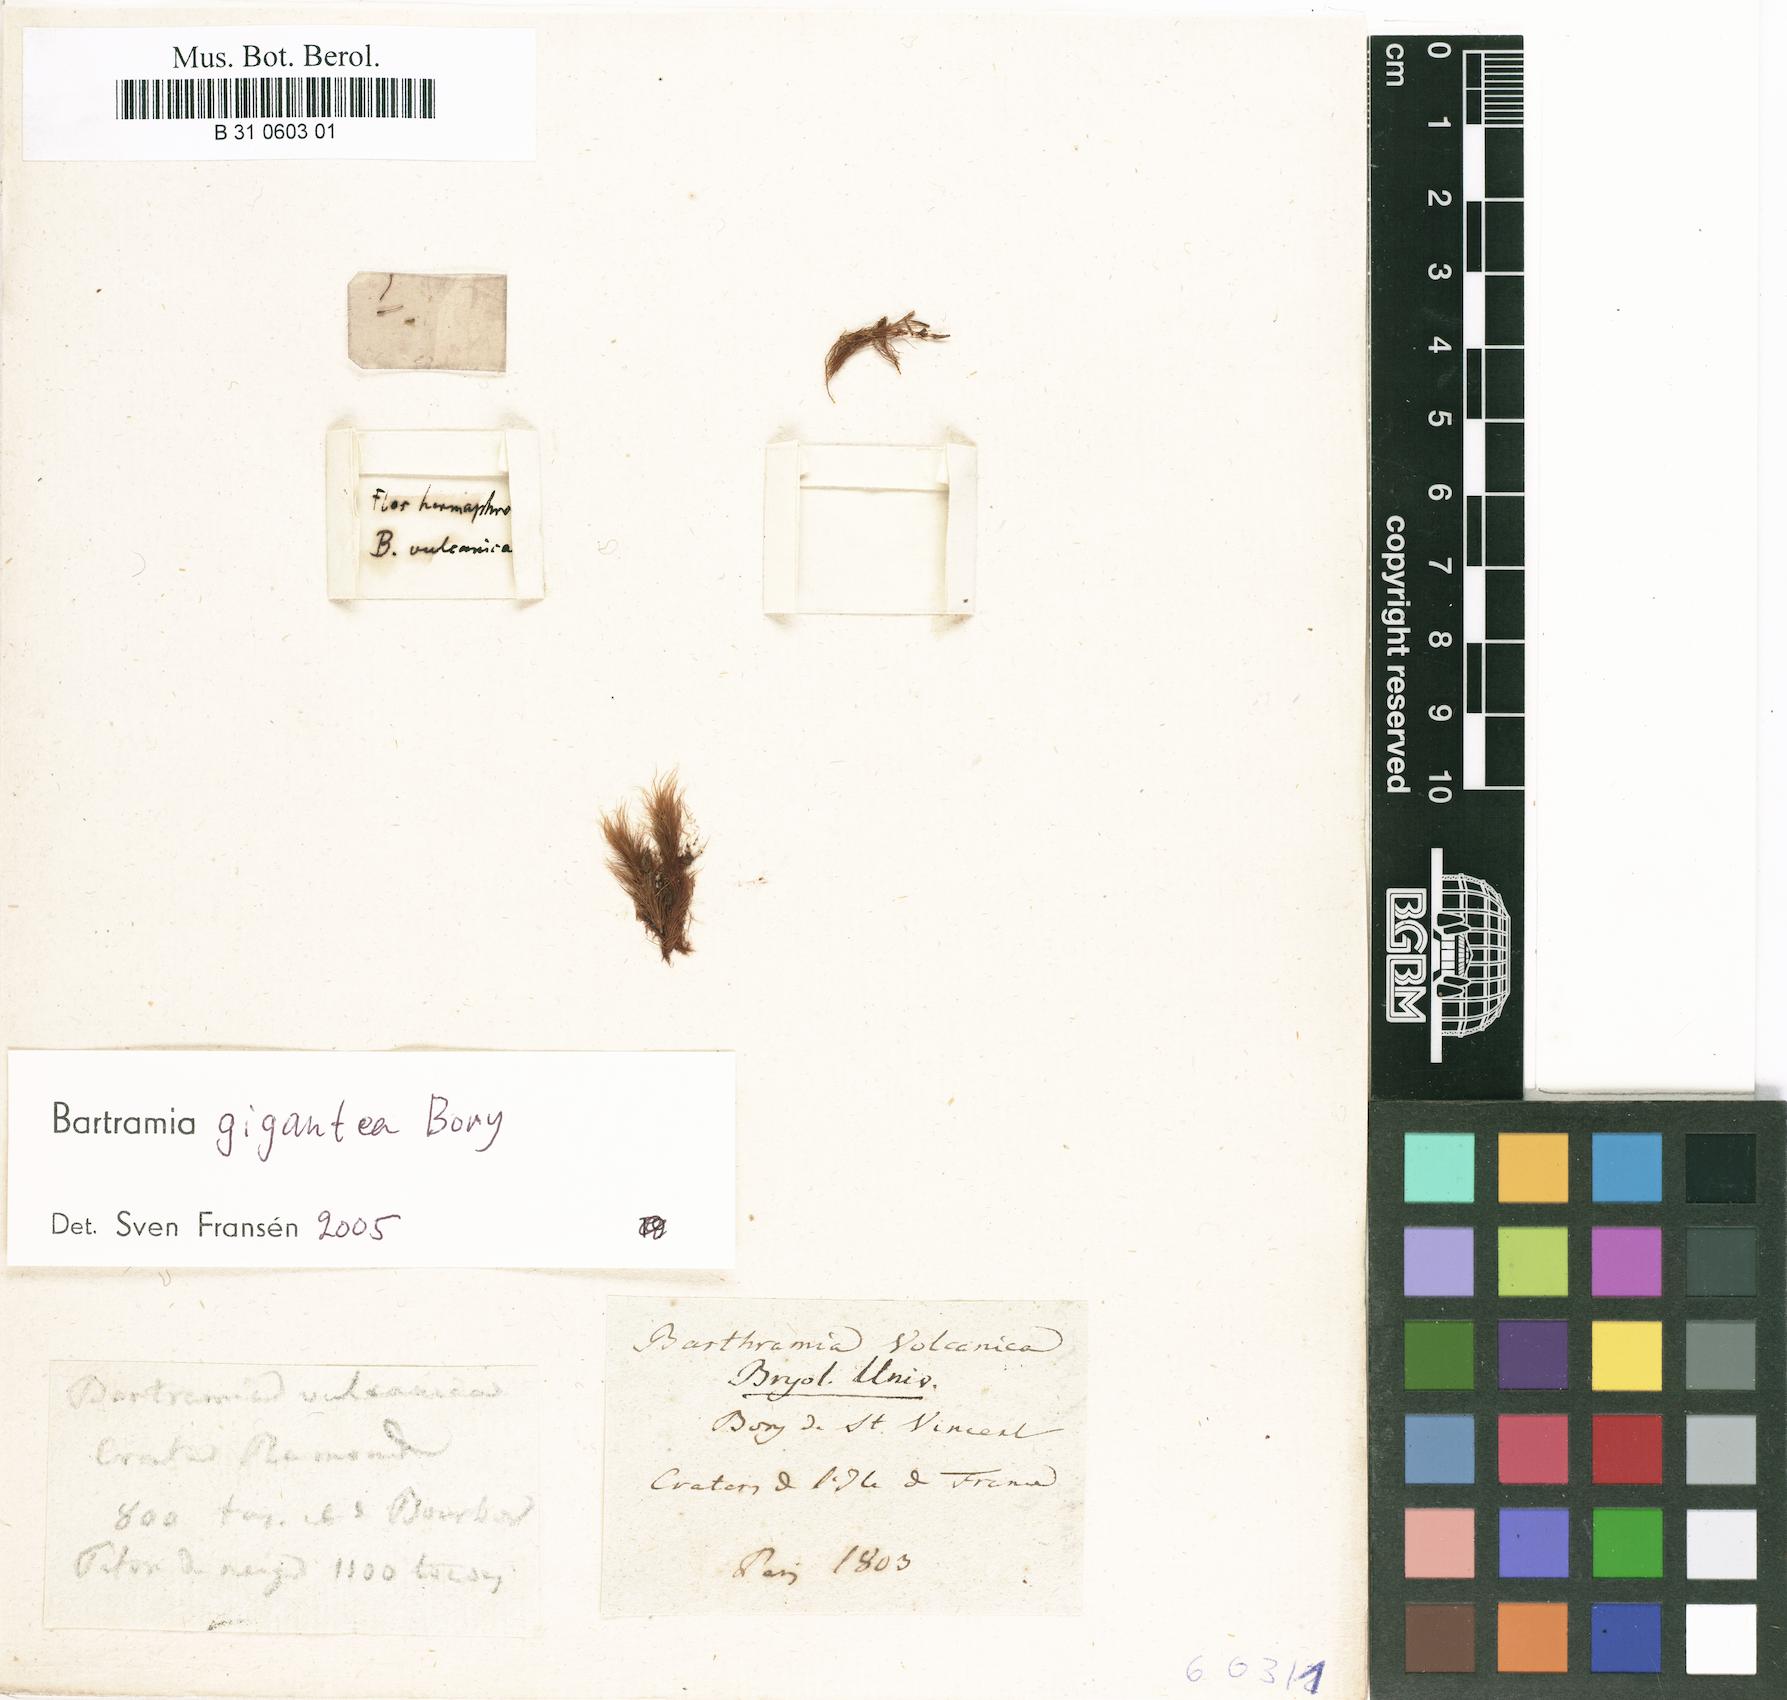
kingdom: Plantae
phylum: Bryophyta
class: Bryopsida
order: Bartramiales
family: Bartramiaceae
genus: Bartramia
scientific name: Bartramia gigantea
